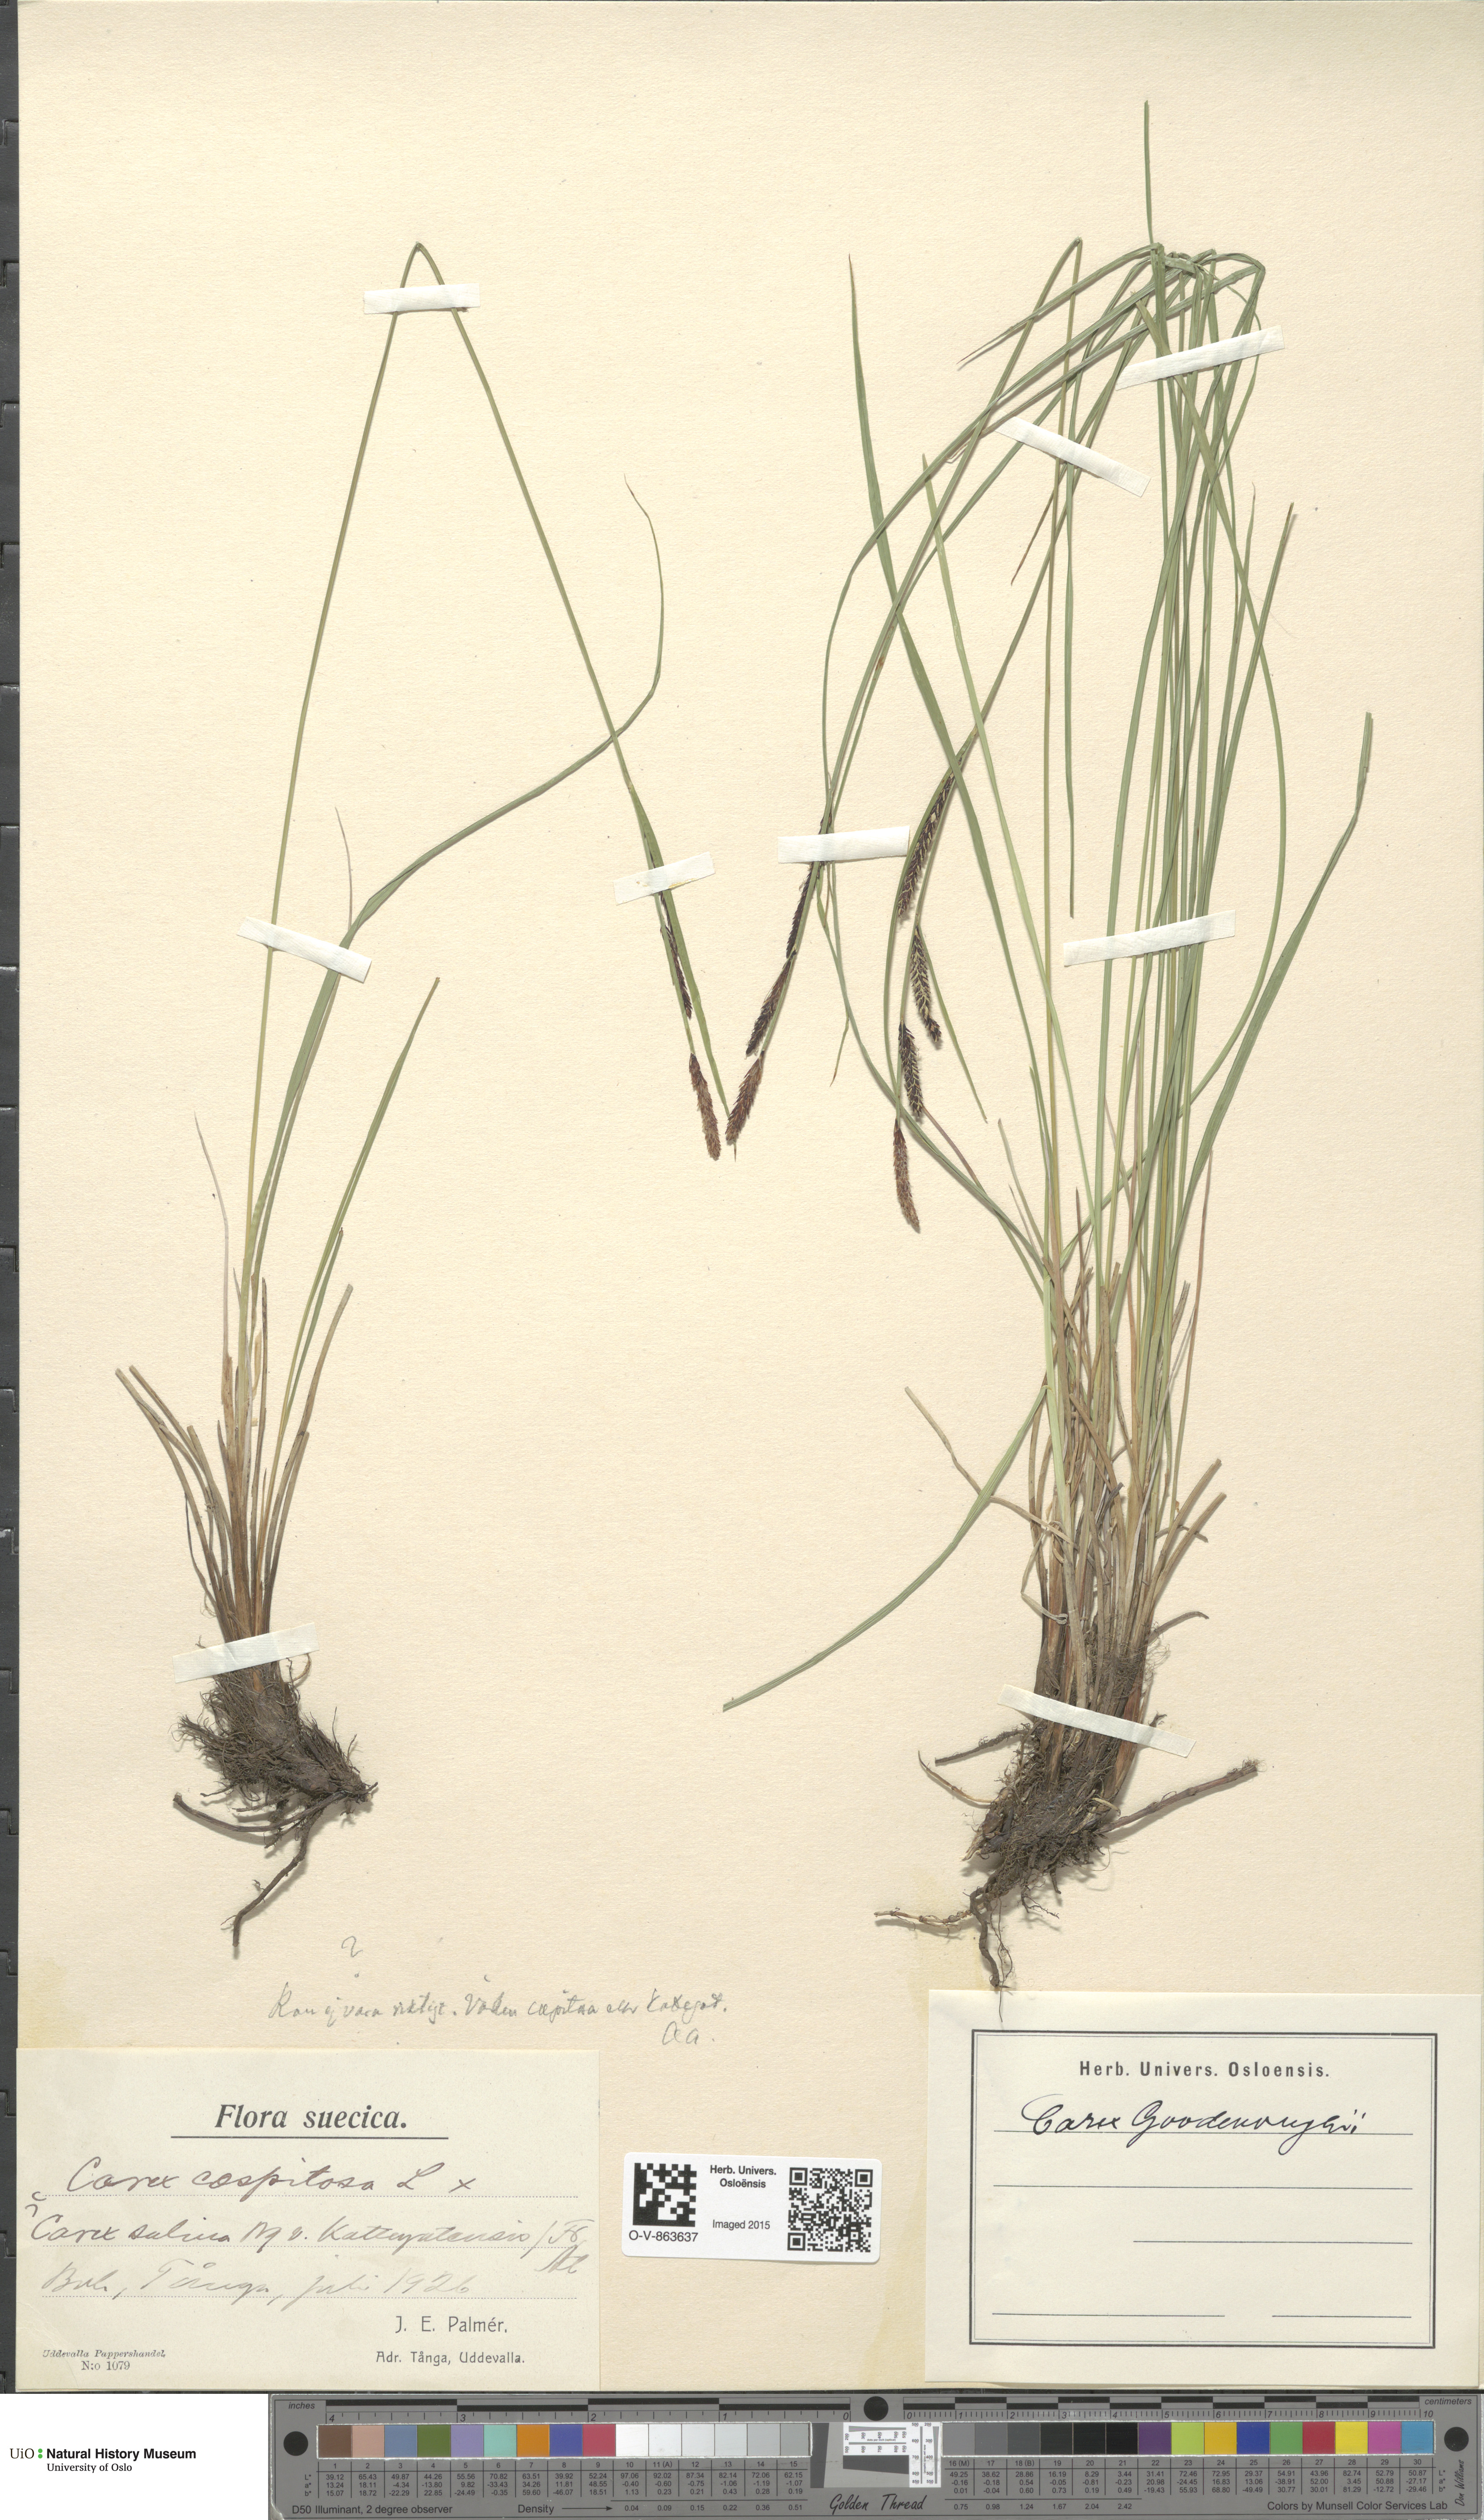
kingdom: Plantae
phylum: Tracheophyta
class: Liliopsida
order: Poales
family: Cyperaceae
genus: Carex
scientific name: Carex nigra
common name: Common sedge
